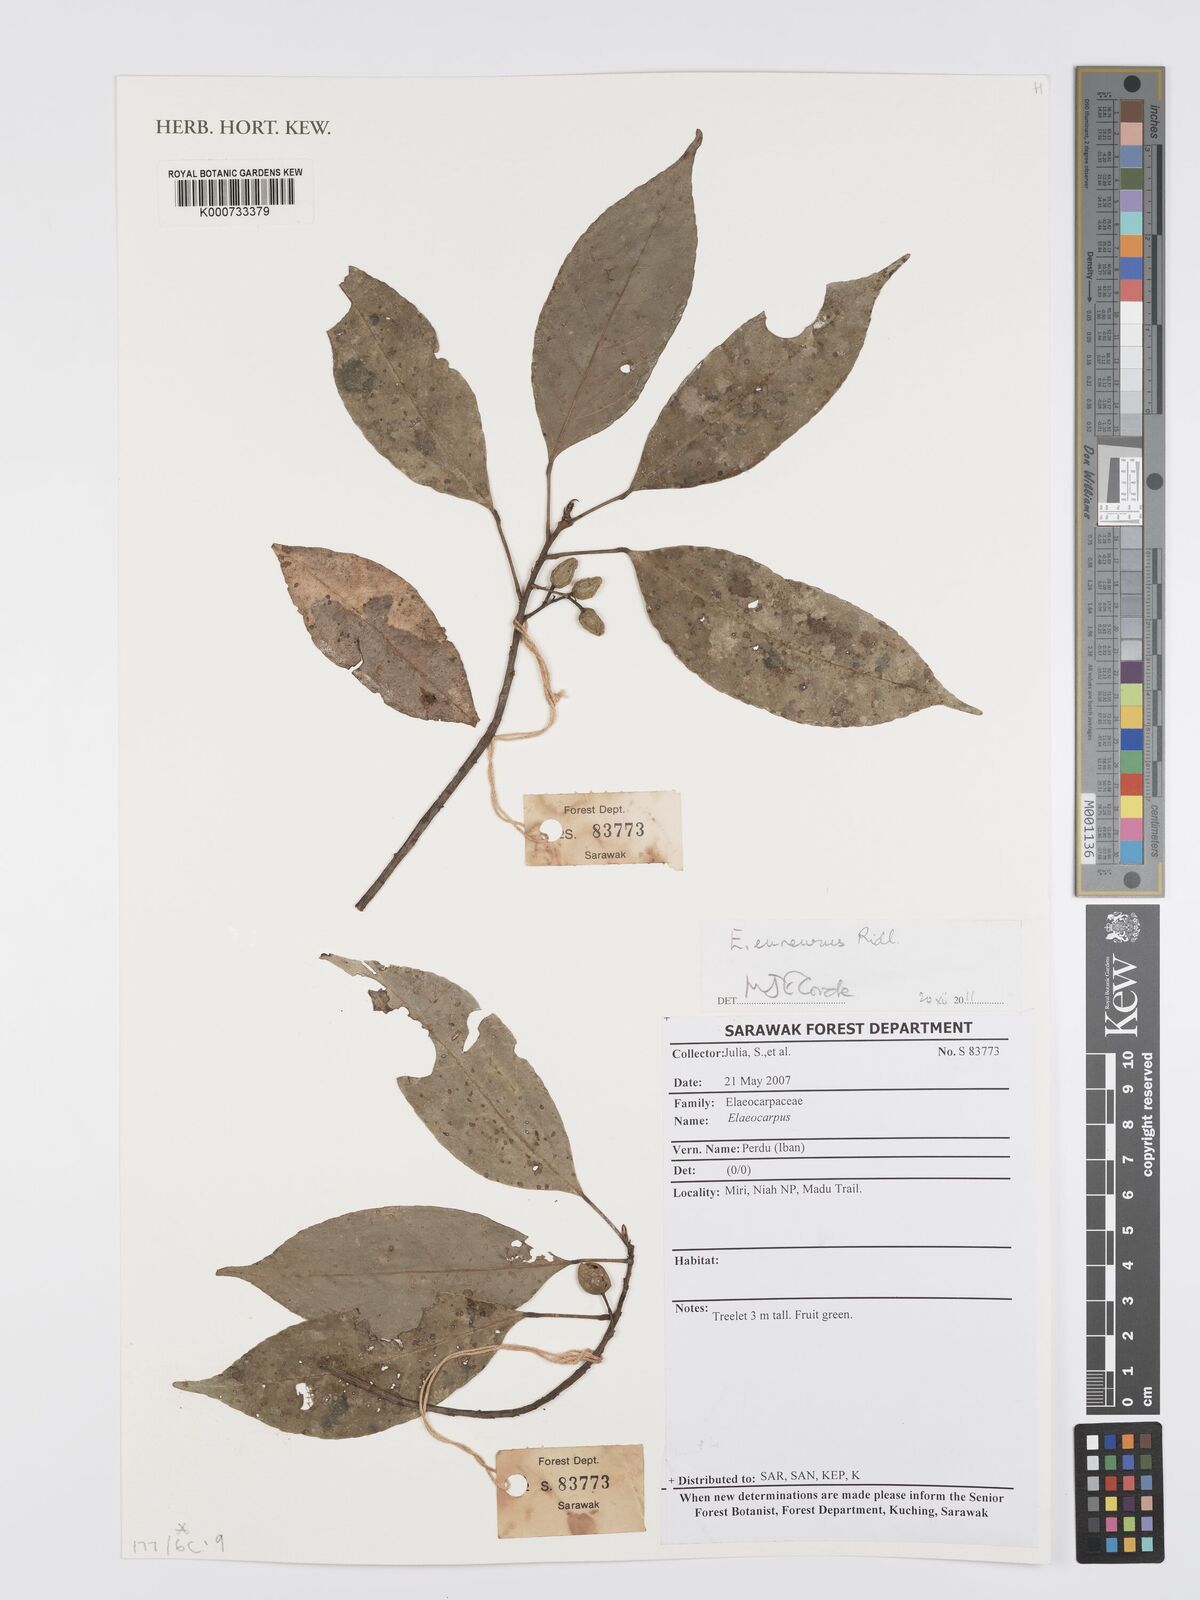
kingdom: Plantae
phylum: Tracheophyta
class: Magnoliopsida
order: Oxalidales
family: Elaeocarpaceae
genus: Elaeocarpus
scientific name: Elaeocarpus euneurus
